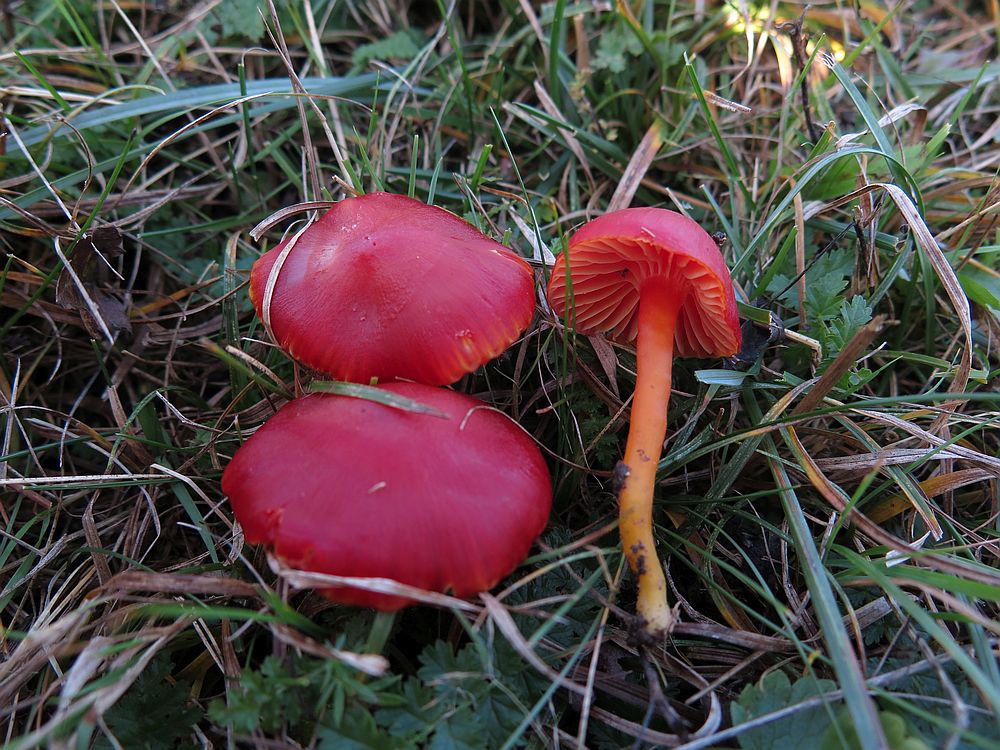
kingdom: Fungi
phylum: Basidiomycota
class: Agaricomycetes
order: Agaricales
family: Hygrophoraceae
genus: Hygrocybe
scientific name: Hygrocybe coccinea
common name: cinnober-vokshat
